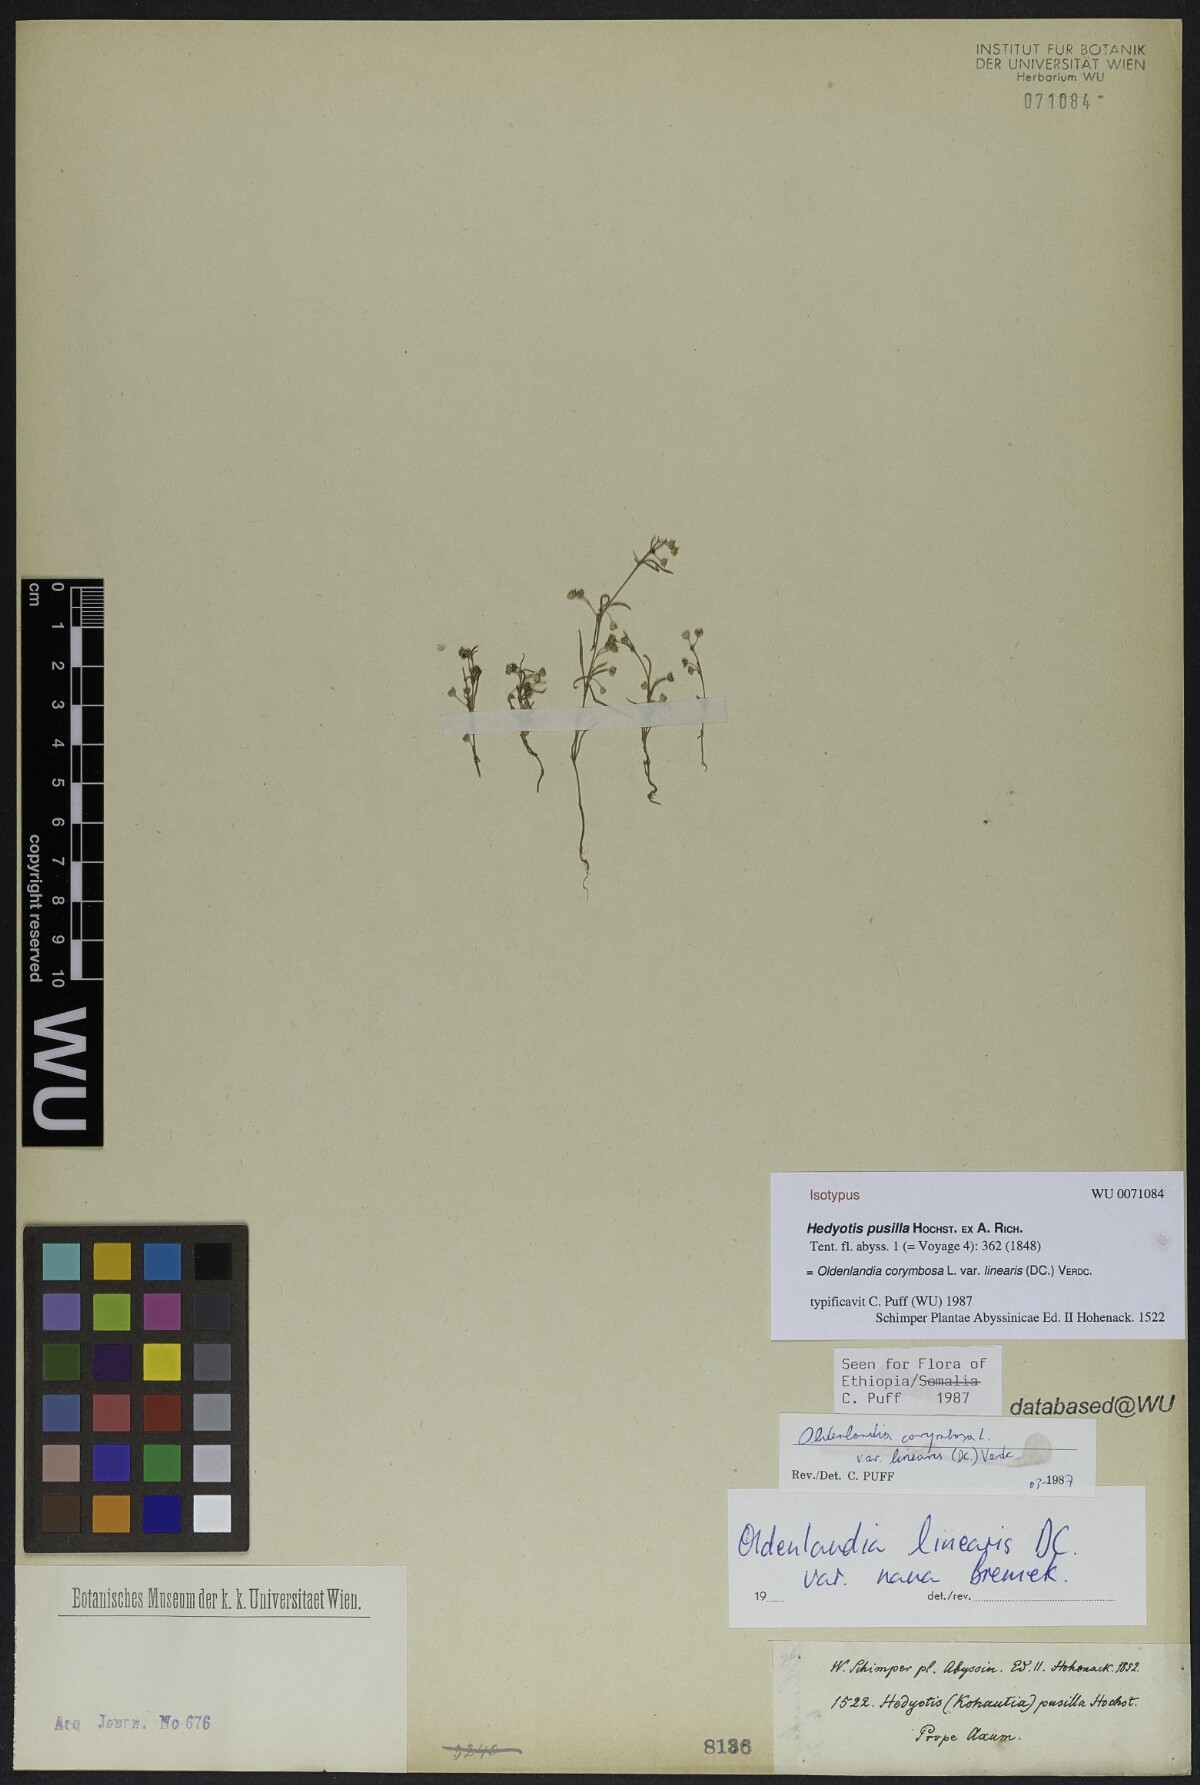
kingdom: Plantae
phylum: Tracheophyta
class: Magnoliopsida
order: Gentianales
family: Rubiaceae
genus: Oldenlandia
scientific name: Oldenlandia corymbosa
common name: Flat-top mille graines
